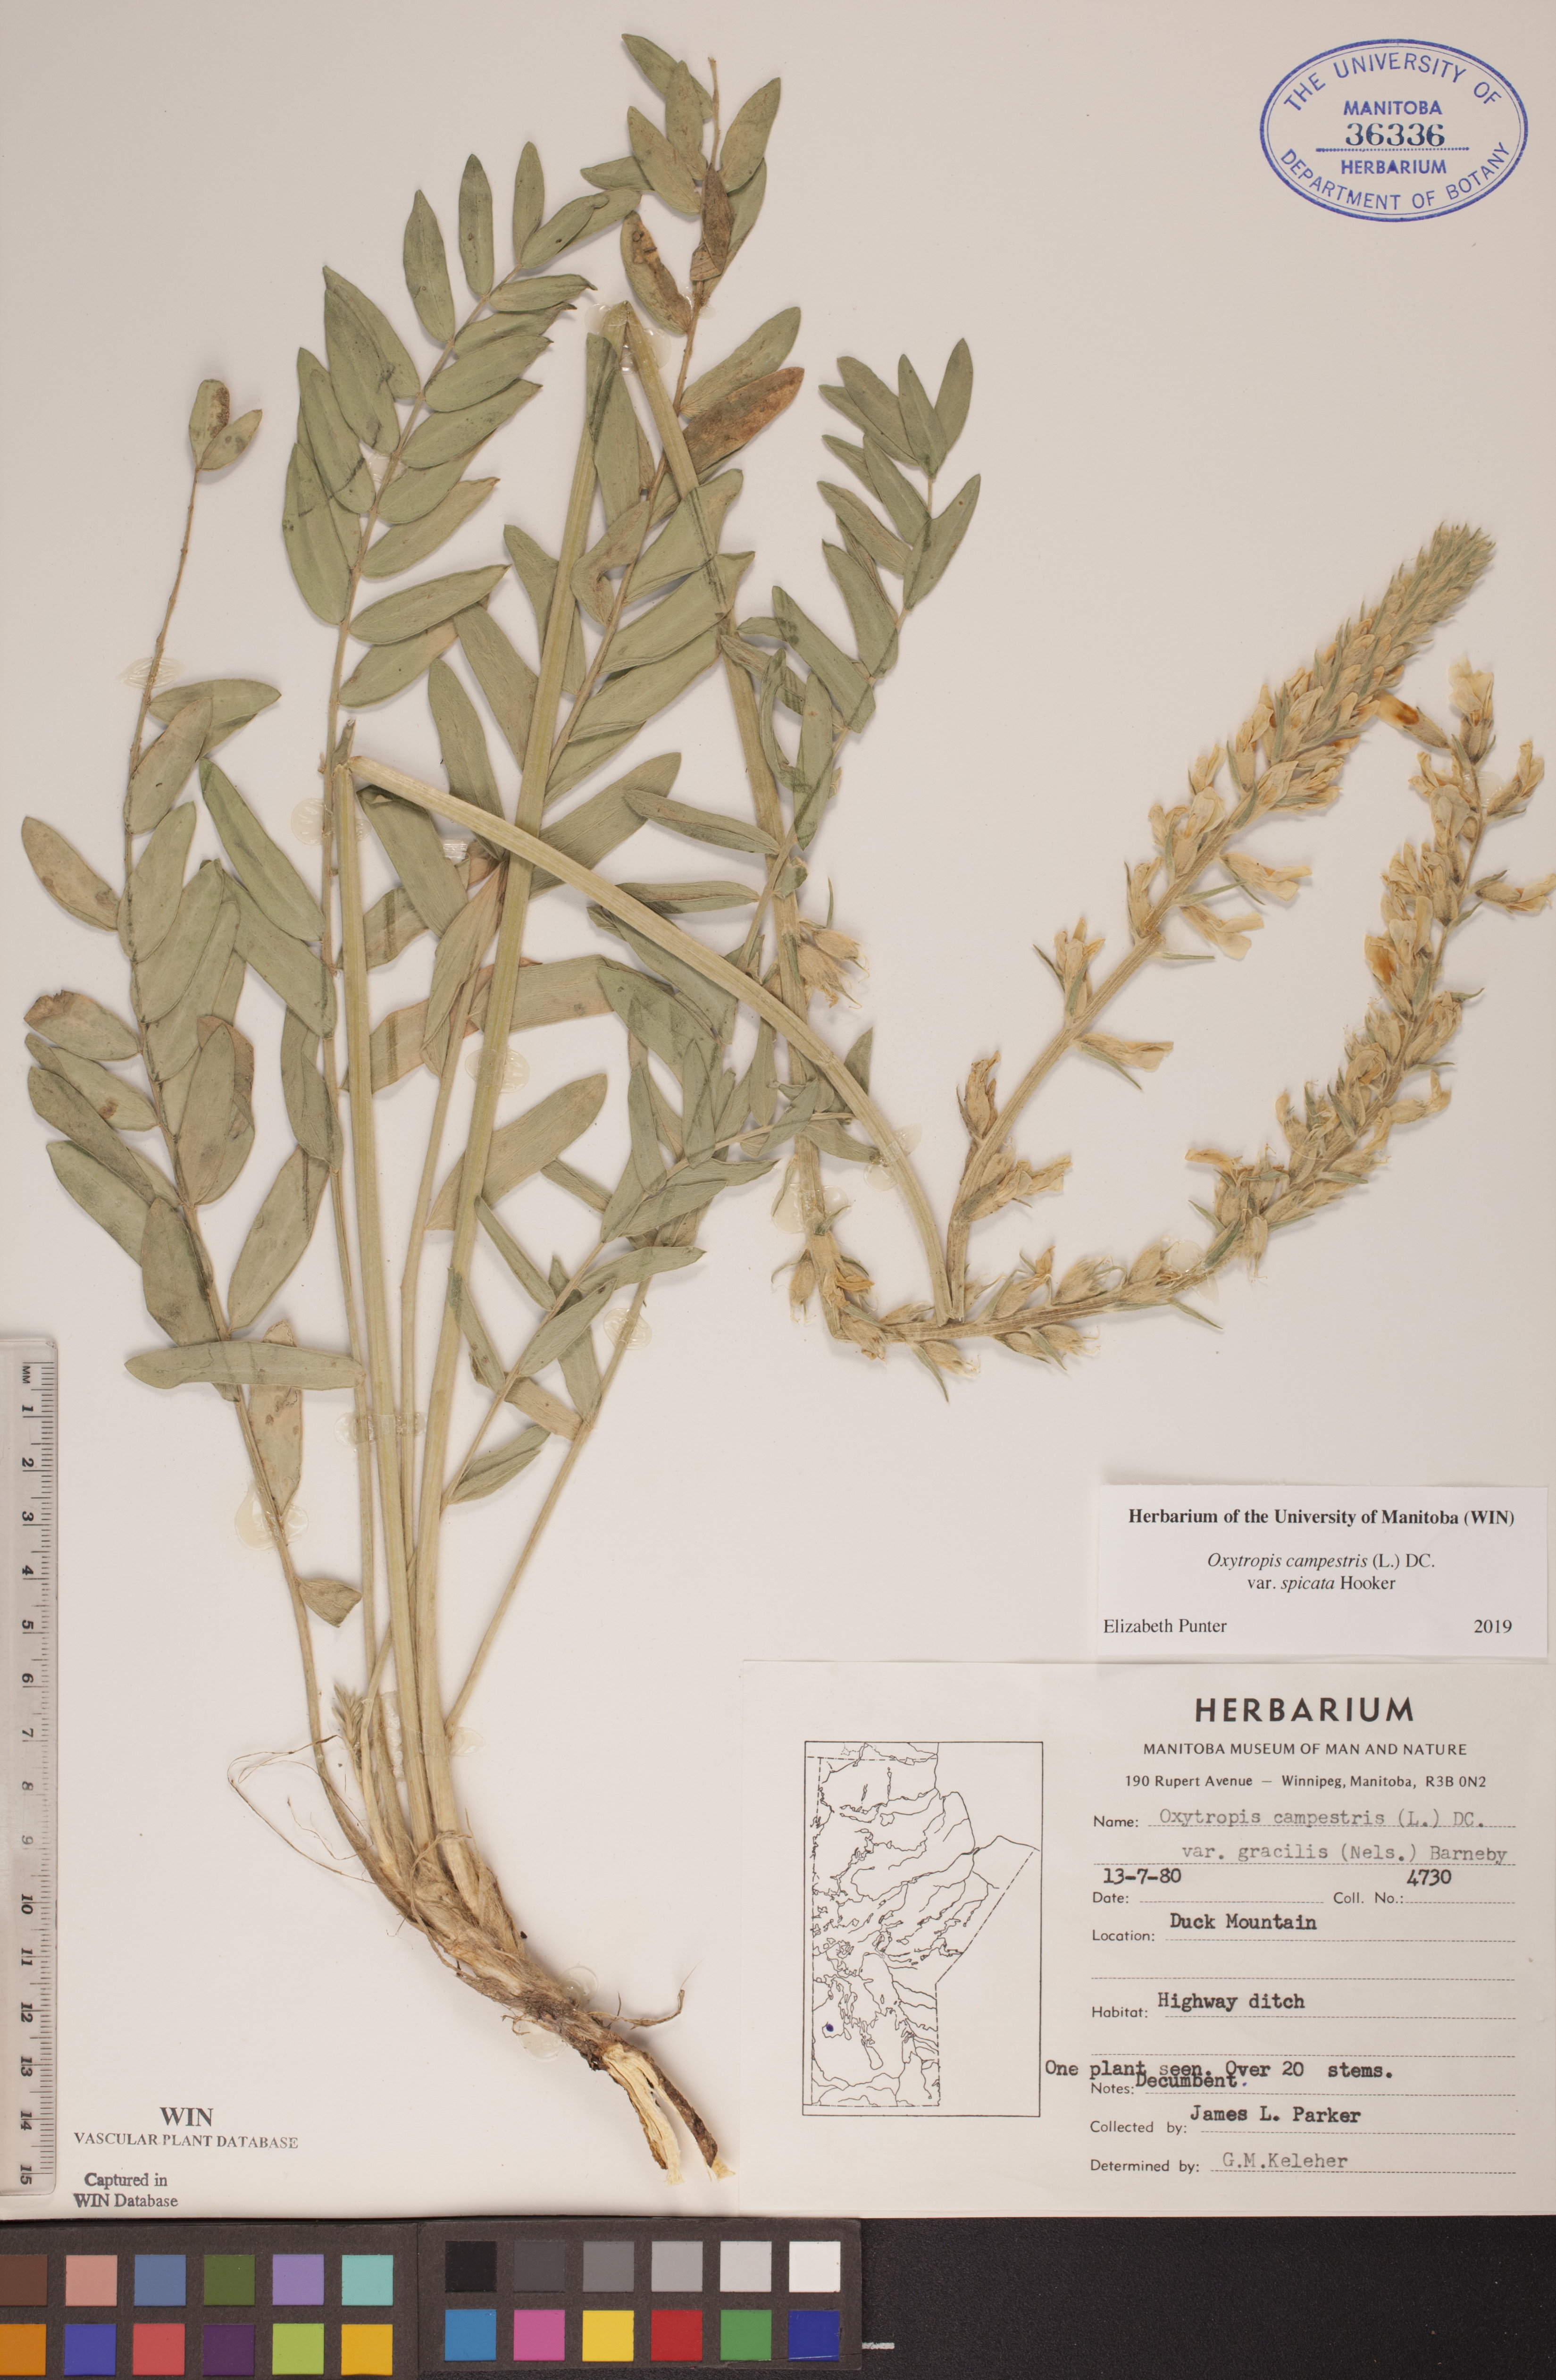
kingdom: Plantae
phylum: Tracheophyta
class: Magnoliopsida
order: Fabales
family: Fabaceae
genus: Oxytropis
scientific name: Oxytropis campestris
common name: Field locoweed
